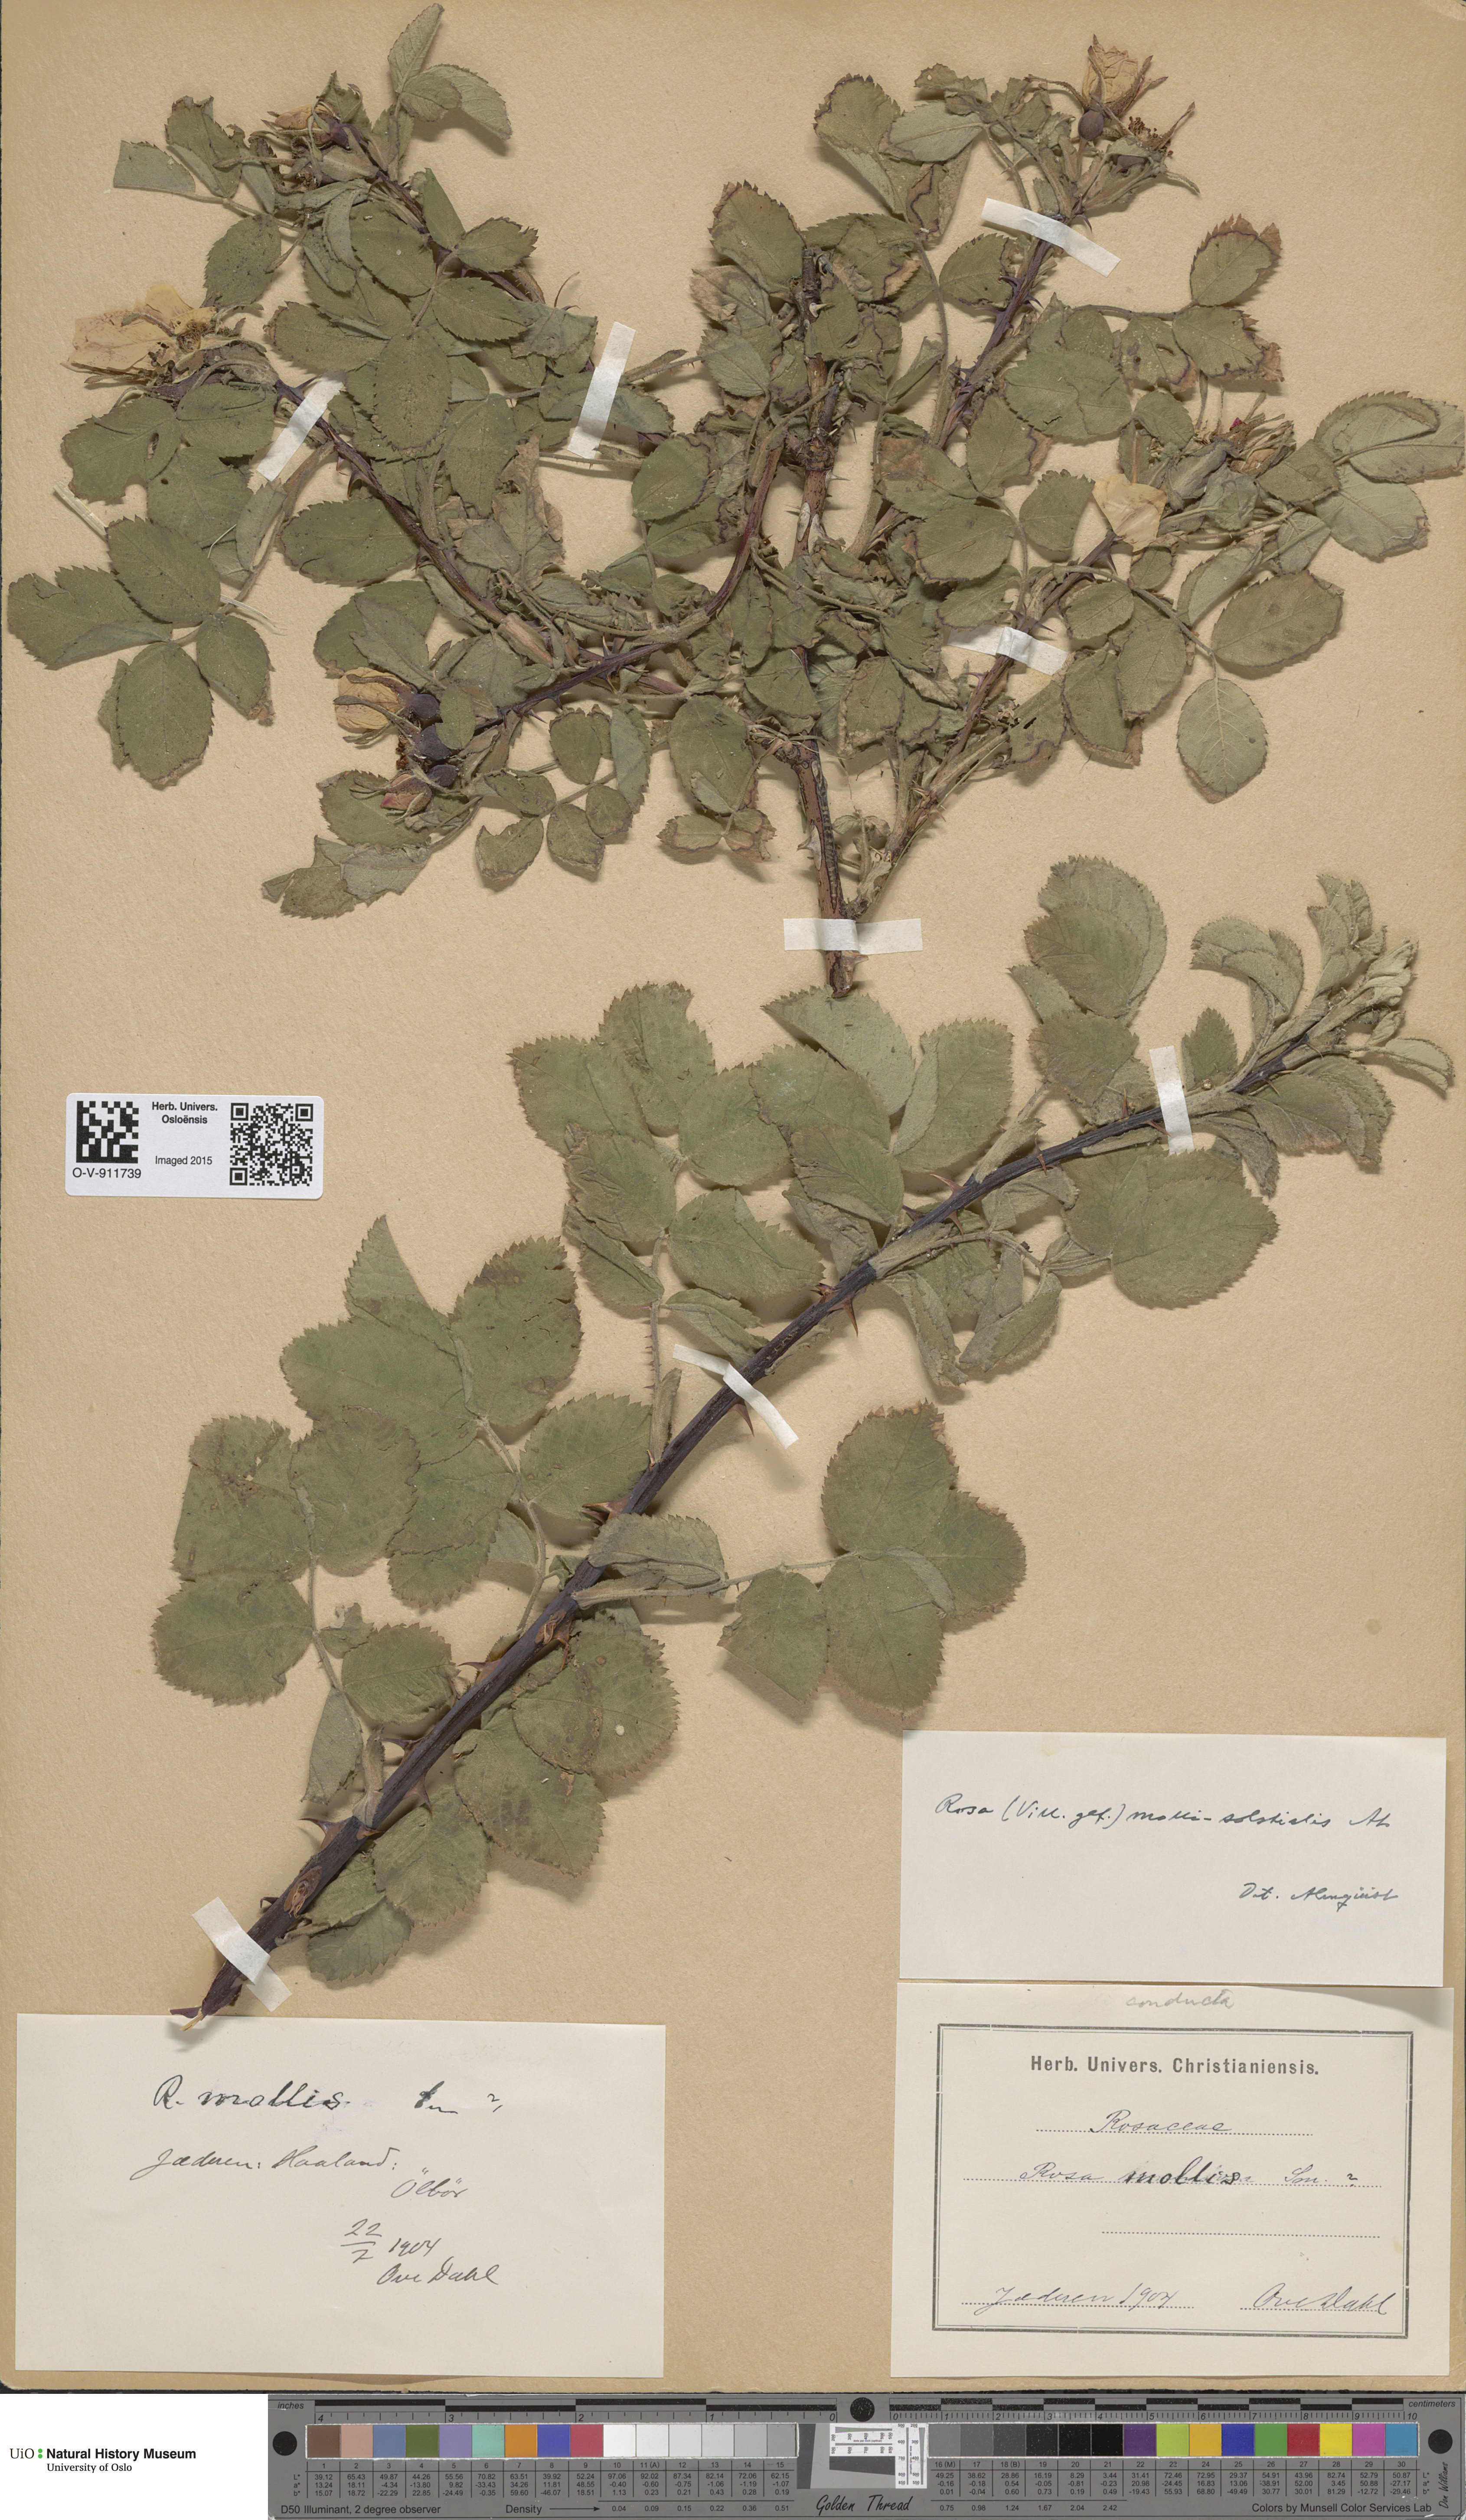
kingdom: Plantae
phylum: Tracheophyta
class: Magnoliopsida
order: Rosales
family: Rosaceae
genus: Rosa
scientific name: Rosa mollis
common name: Rose
